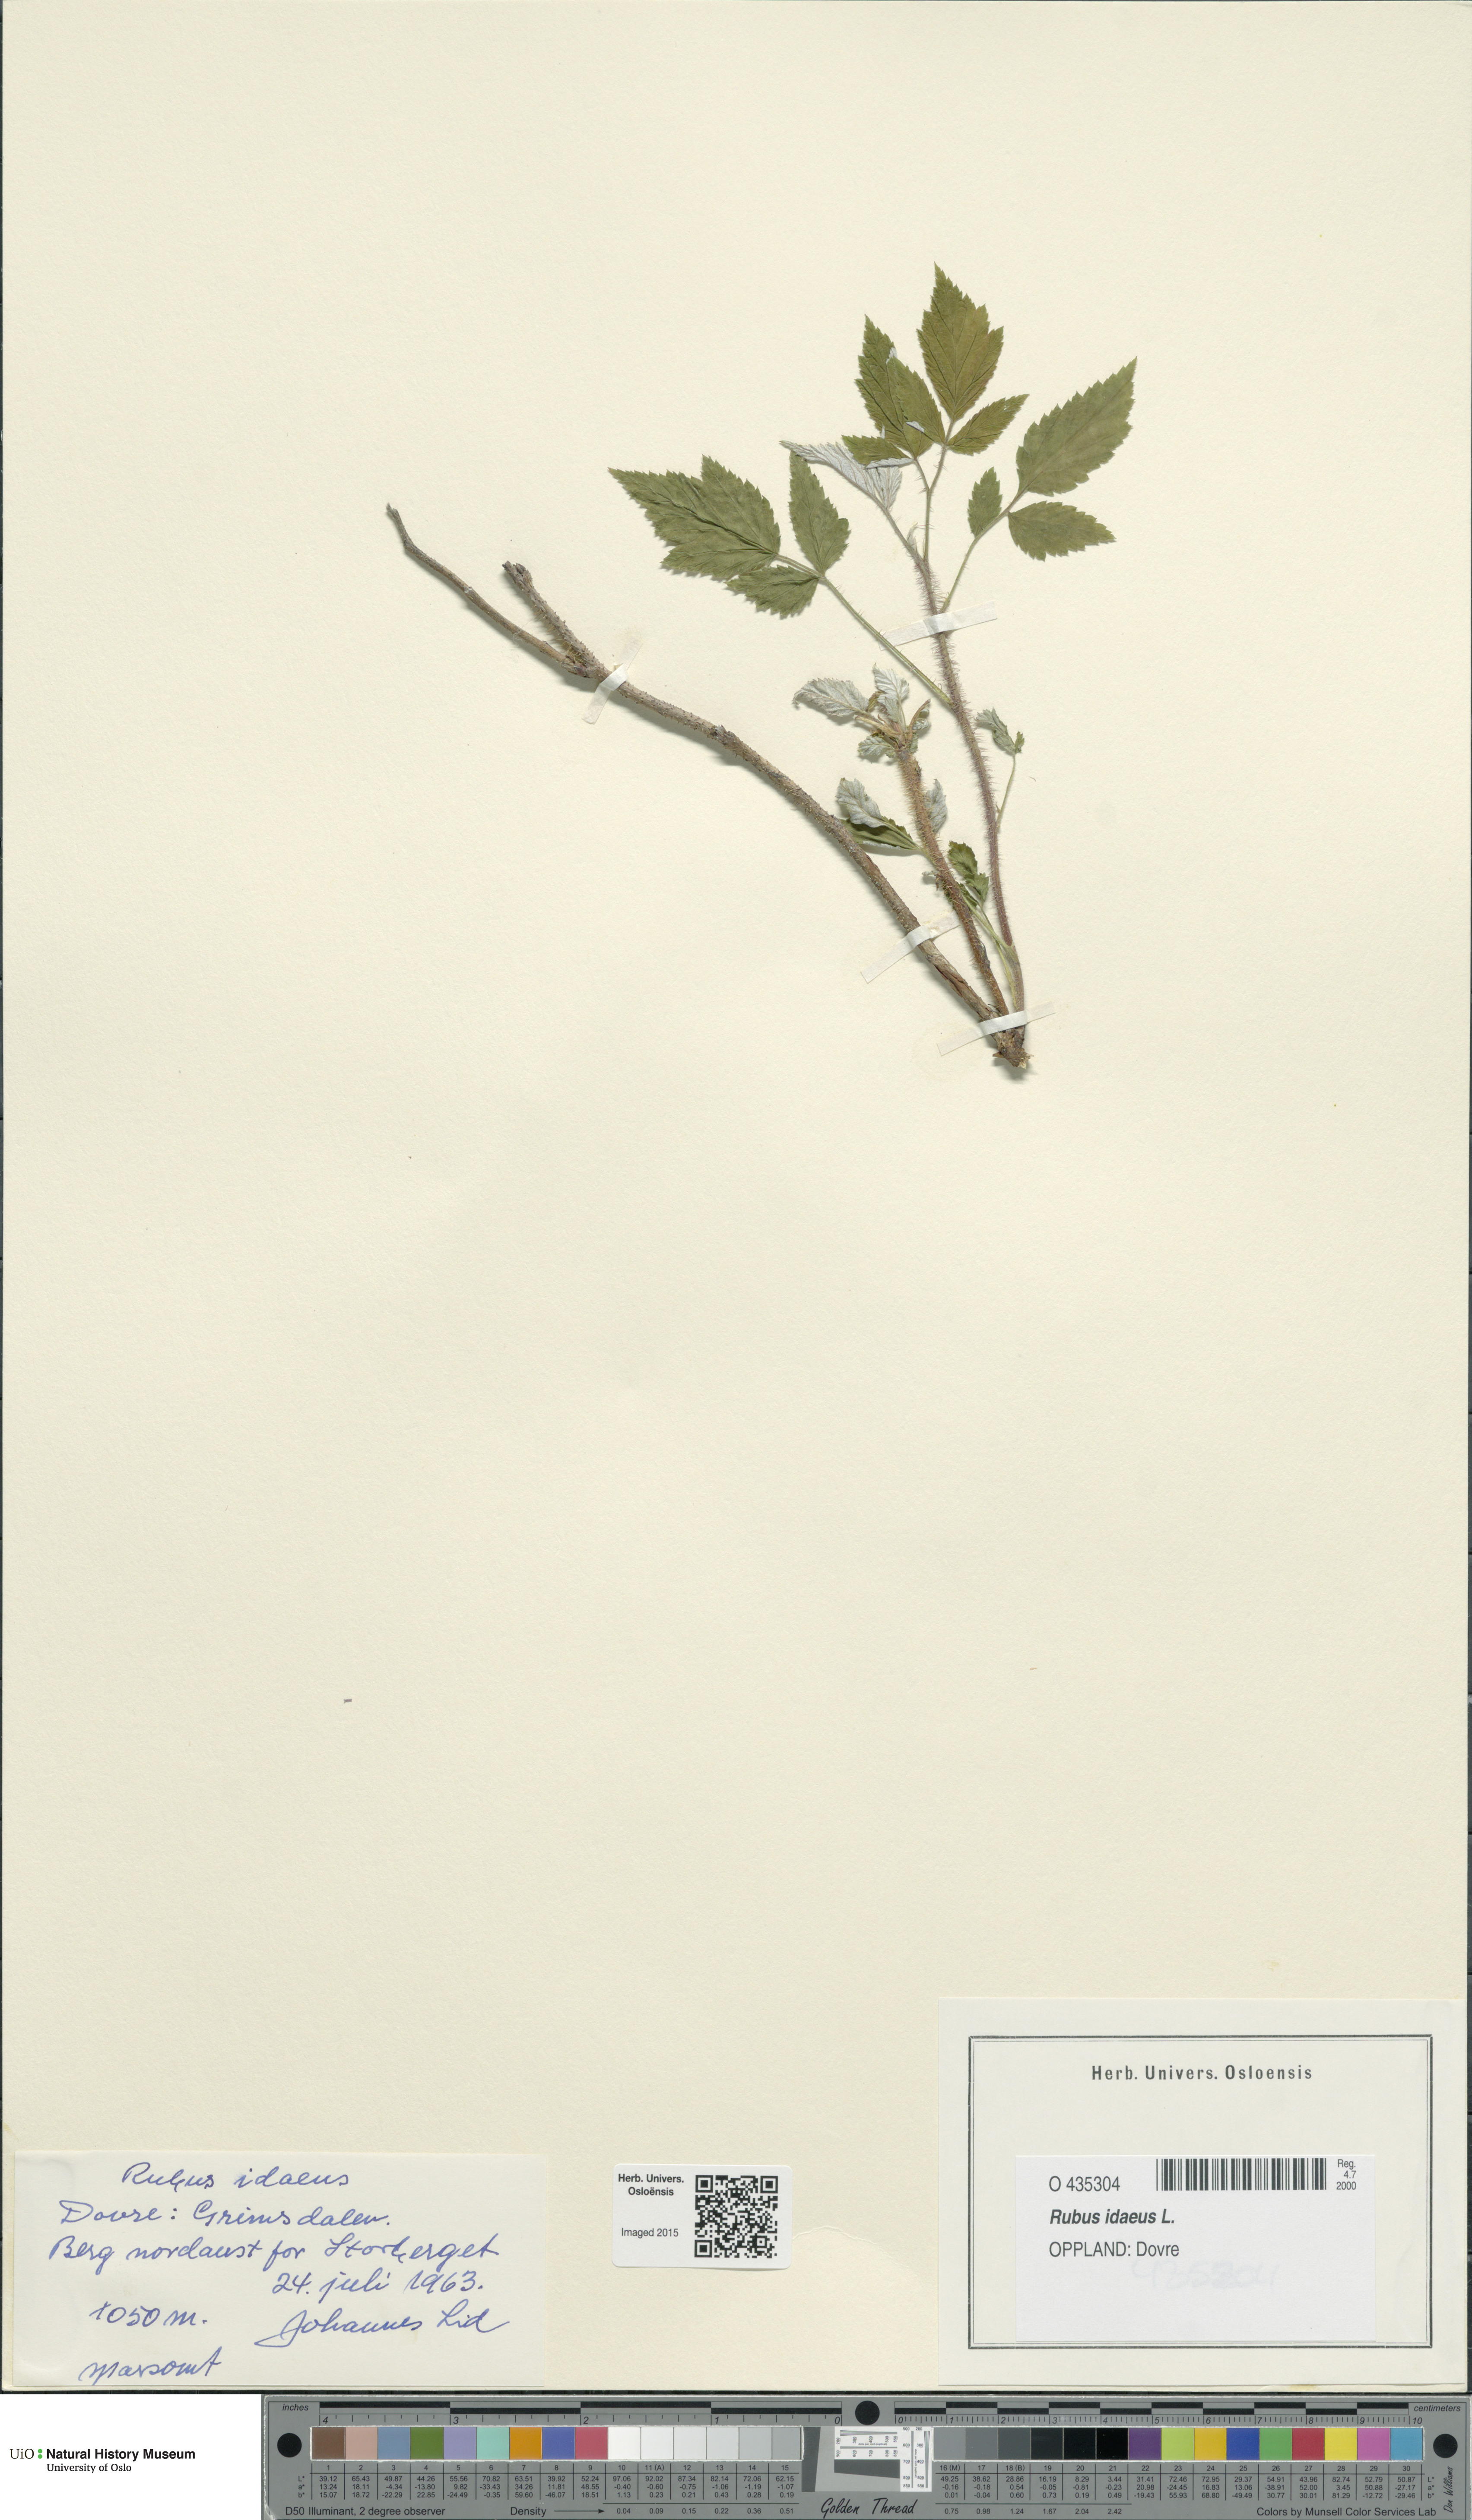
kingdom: Plantae
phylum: Tracheophyta
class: Magnoliopsida
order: Rosales
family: Rosaceae
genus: Rubus
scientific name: Rubus idaeus
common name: Raspberry
